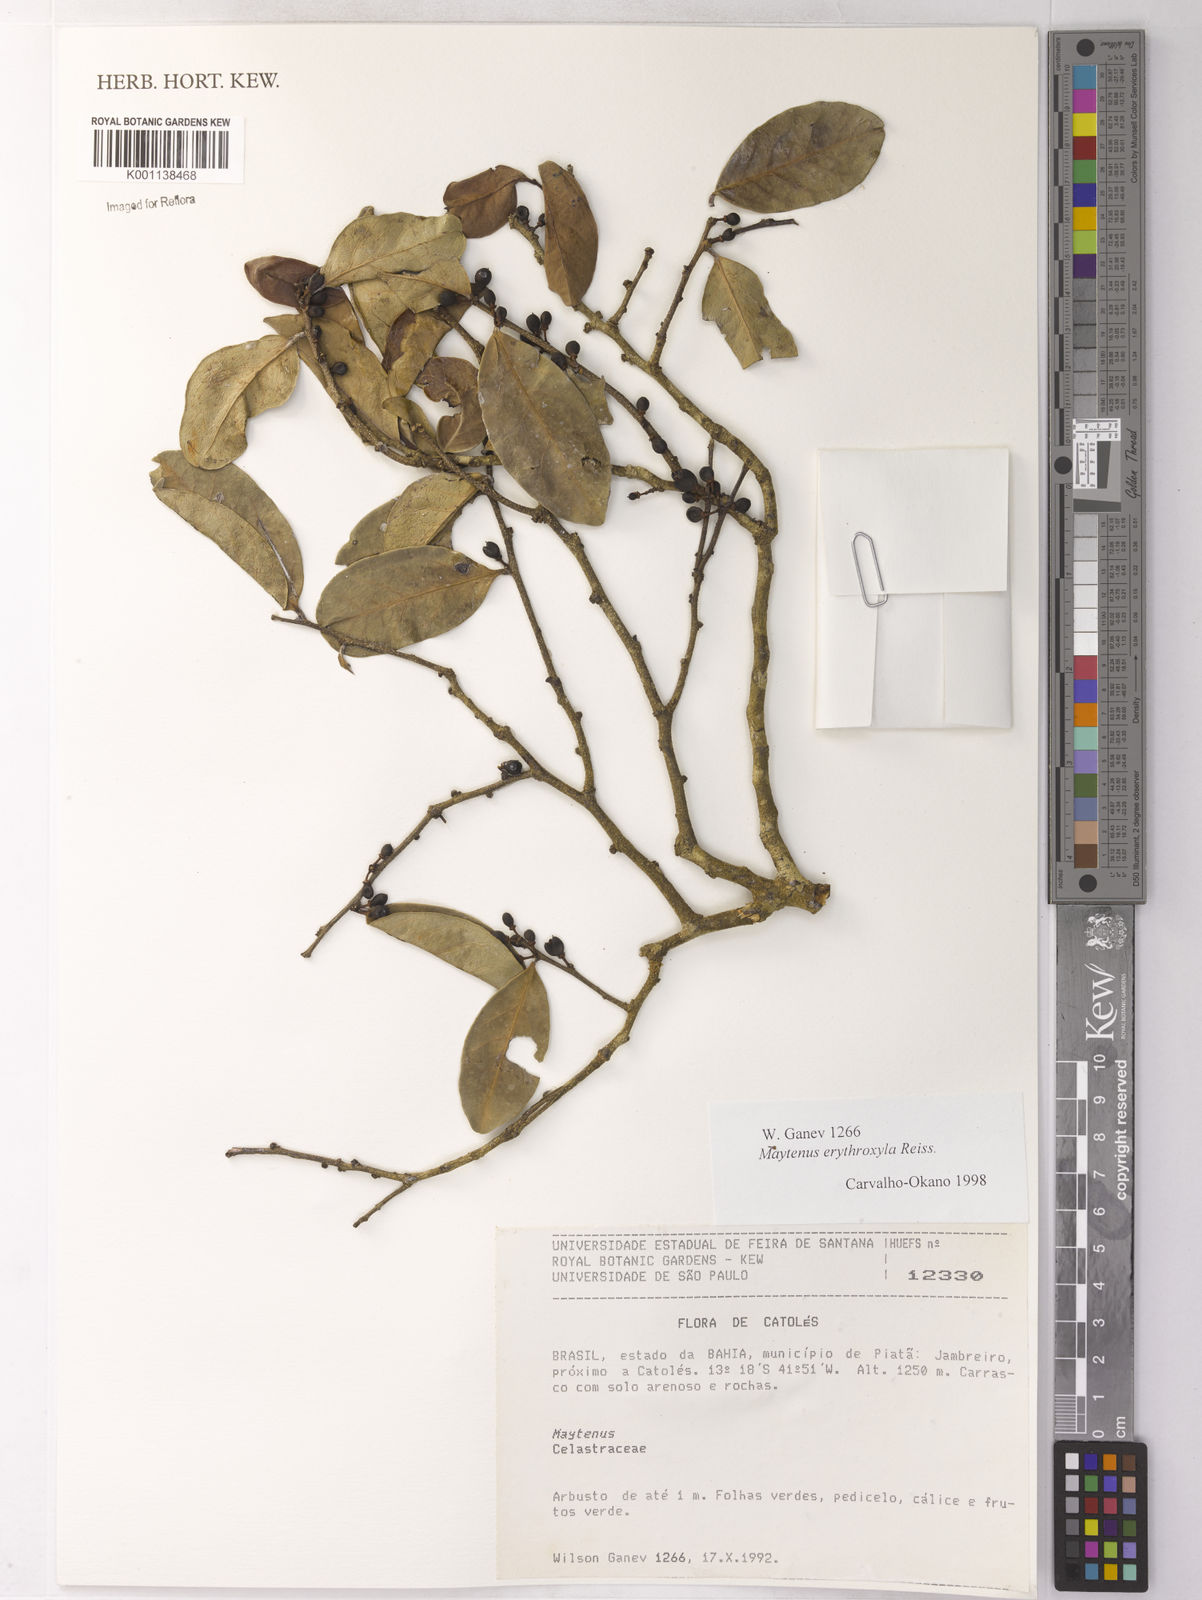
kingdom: Plantae
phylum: Tracheophyta
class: Magnoliopsida
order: Celastrales
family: Celastraceae
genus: Monteverdia
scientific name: Monteverdia erythroxylon
